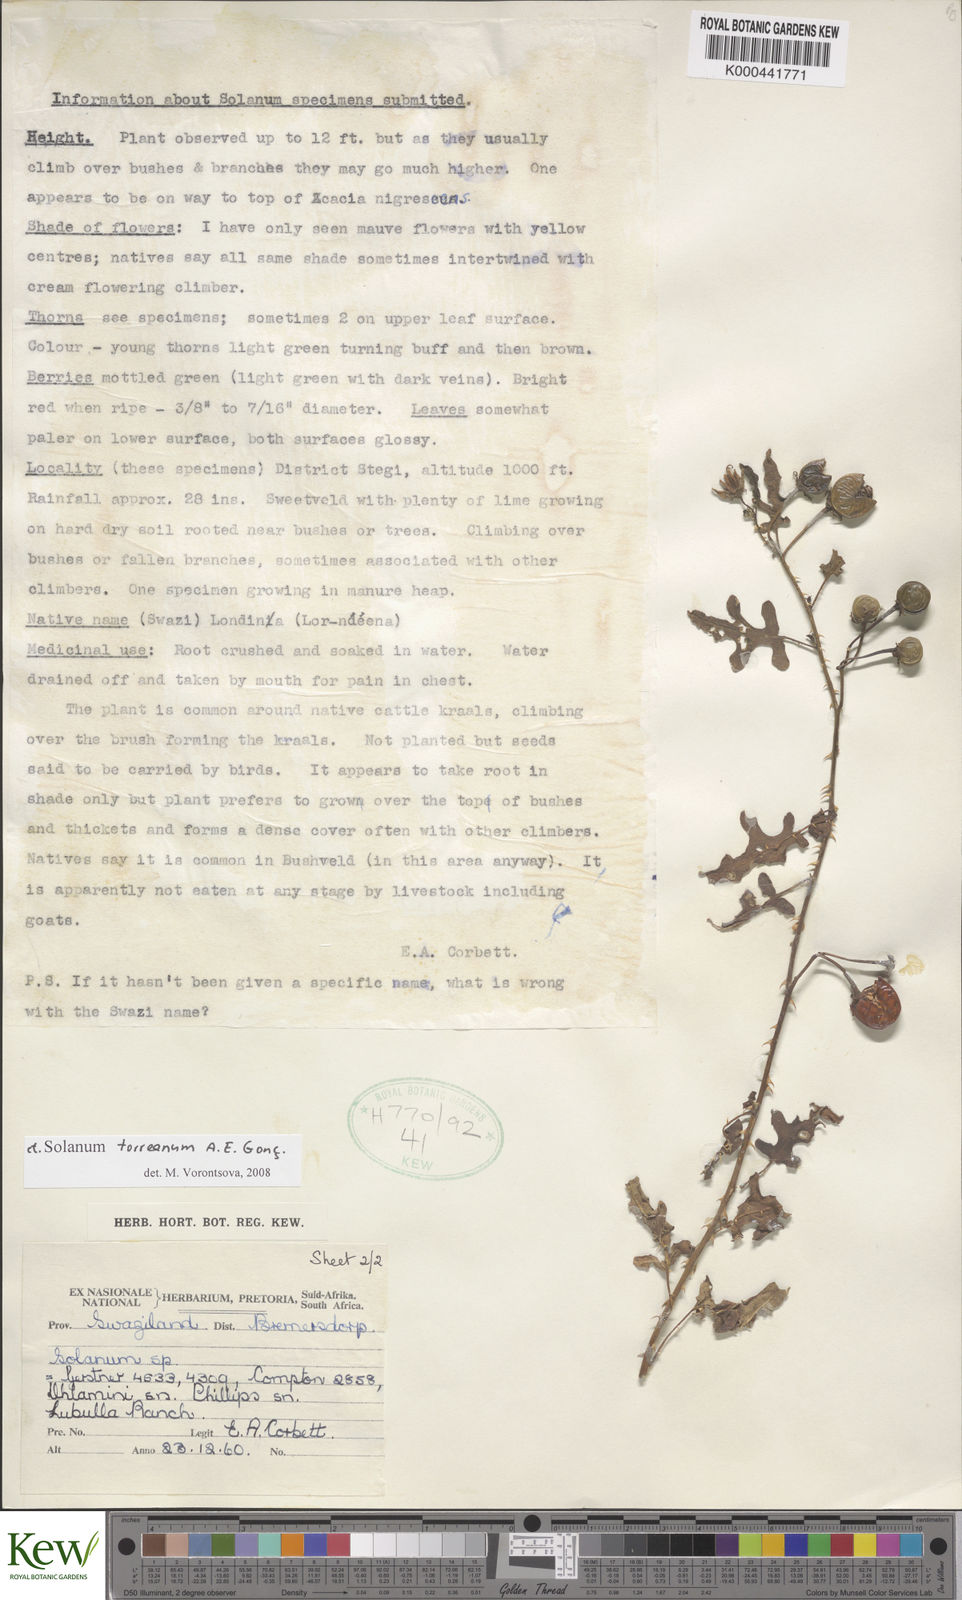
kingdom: Plantae
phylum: Tracheophyta
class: Magnoliopsida
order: Solanales
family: Solanaceae
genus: Solanum
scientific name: Solanum
